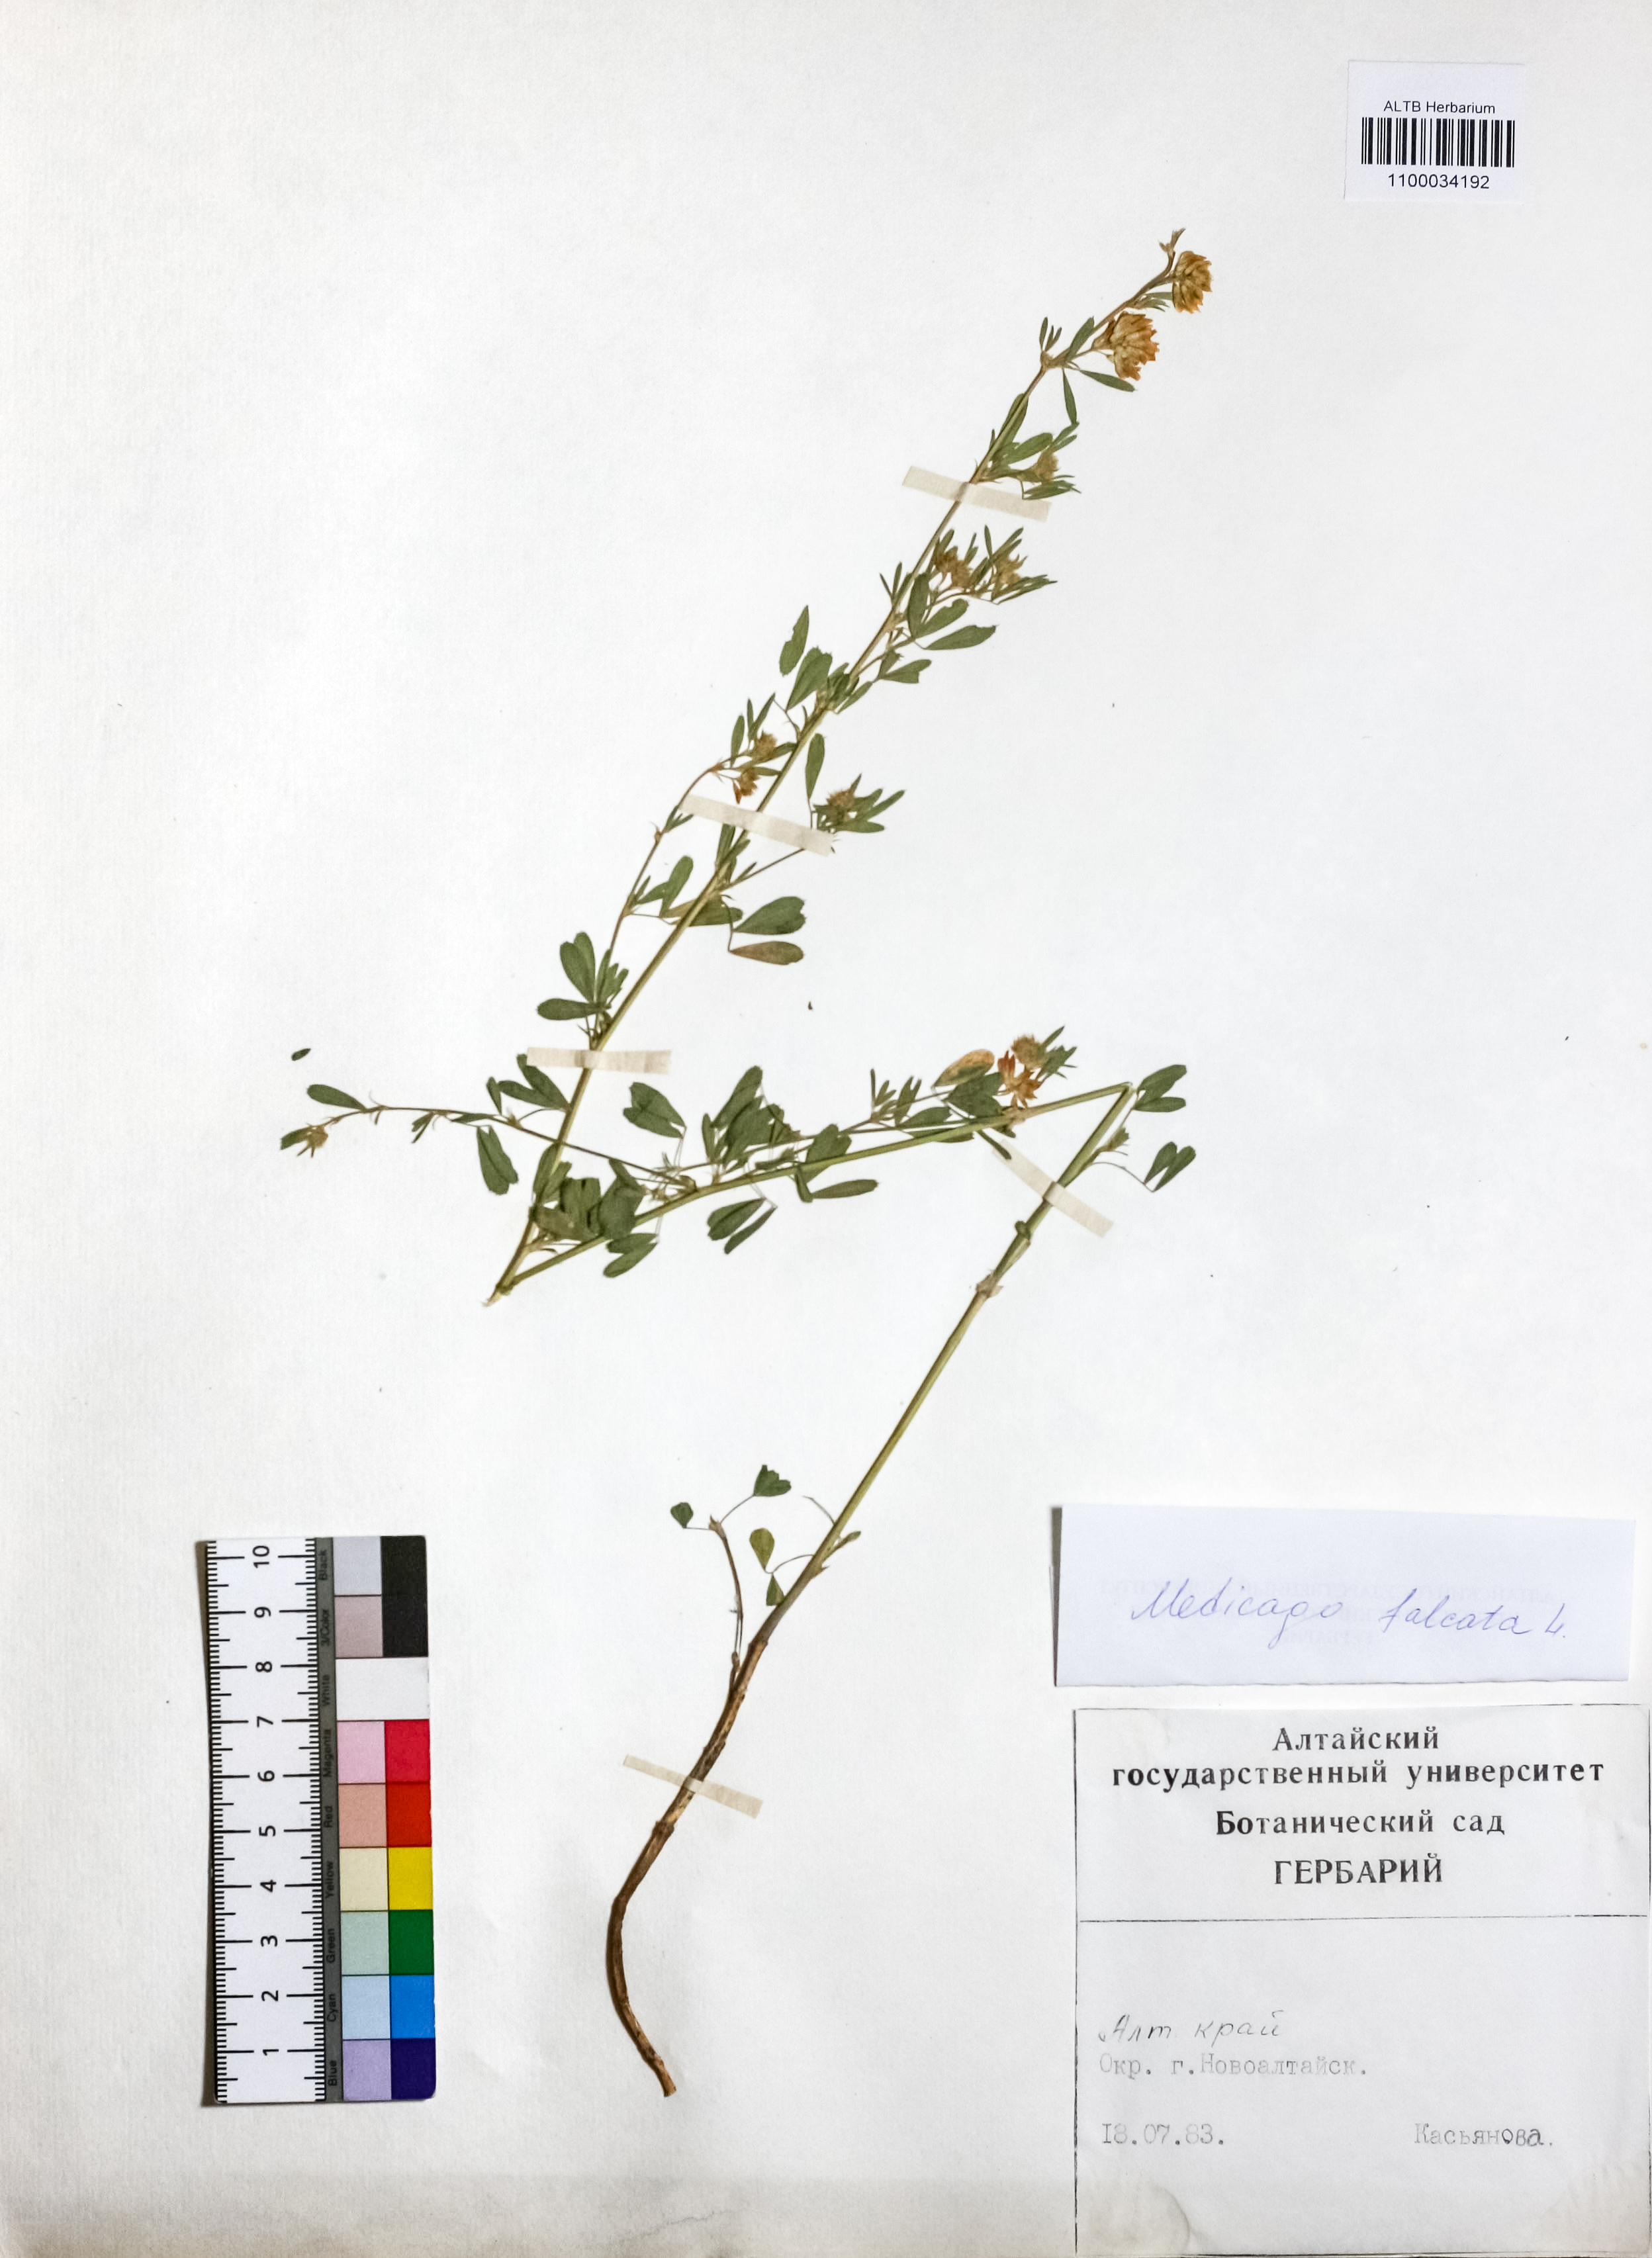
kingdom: Plantae
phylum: Tracheophyta
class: Magnoliopsida
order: Fabales
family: Fabaceae
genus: Medicago
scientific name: Medicago falcata
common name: Sickle medick
